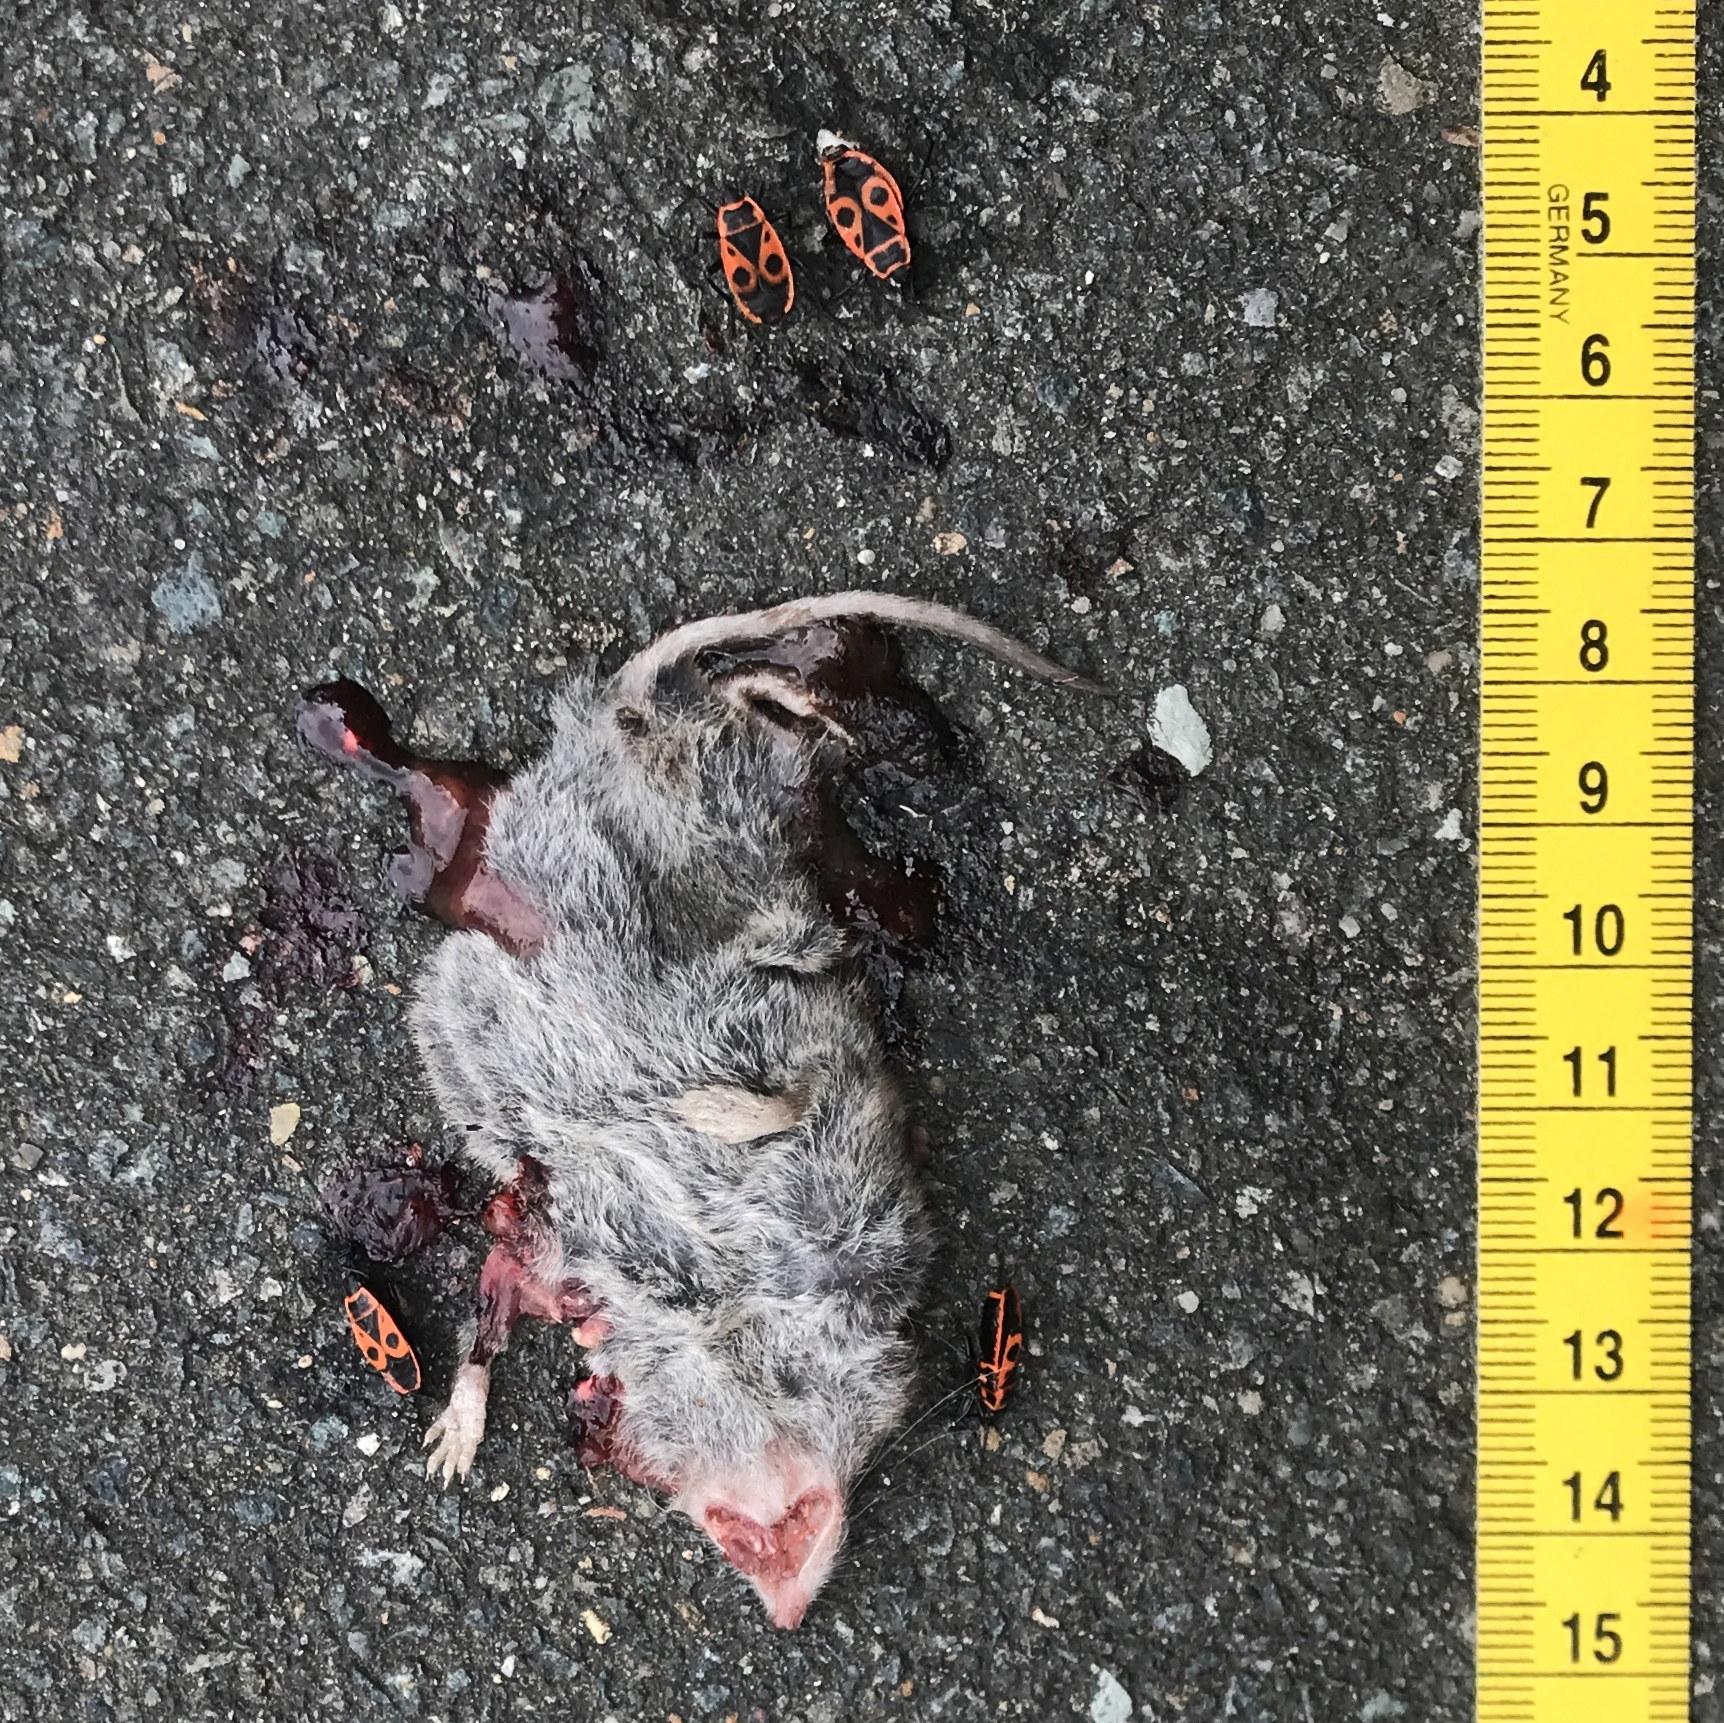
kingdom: Animalia
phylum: Chordata
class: Mammalia
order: Soricomorpha
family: Soricidae
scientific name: Soricidae
